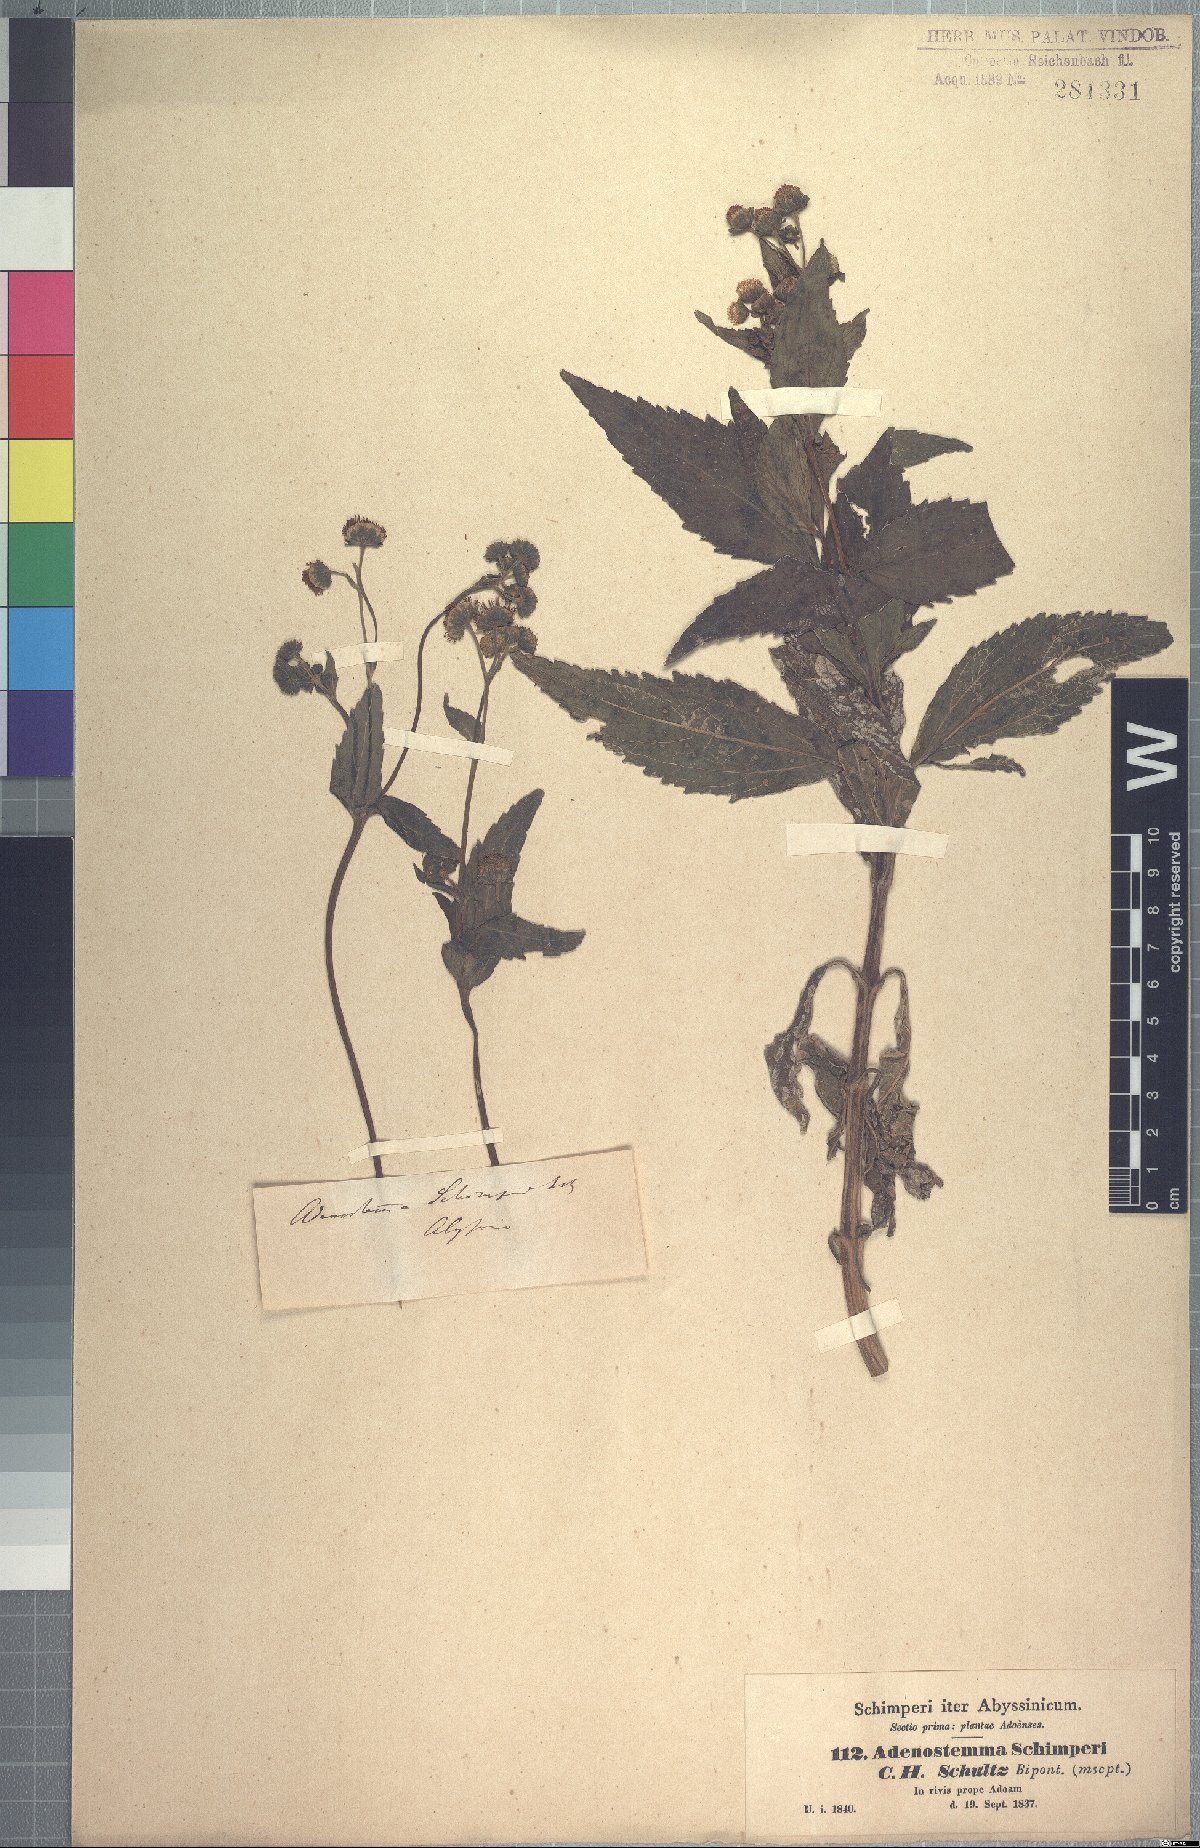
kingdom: Plantae
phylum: Tracheophyta
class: Magnoliopsida
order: Asterales
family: Asteraceae
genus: Adenostemma
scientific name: Adenostemma caffrum
